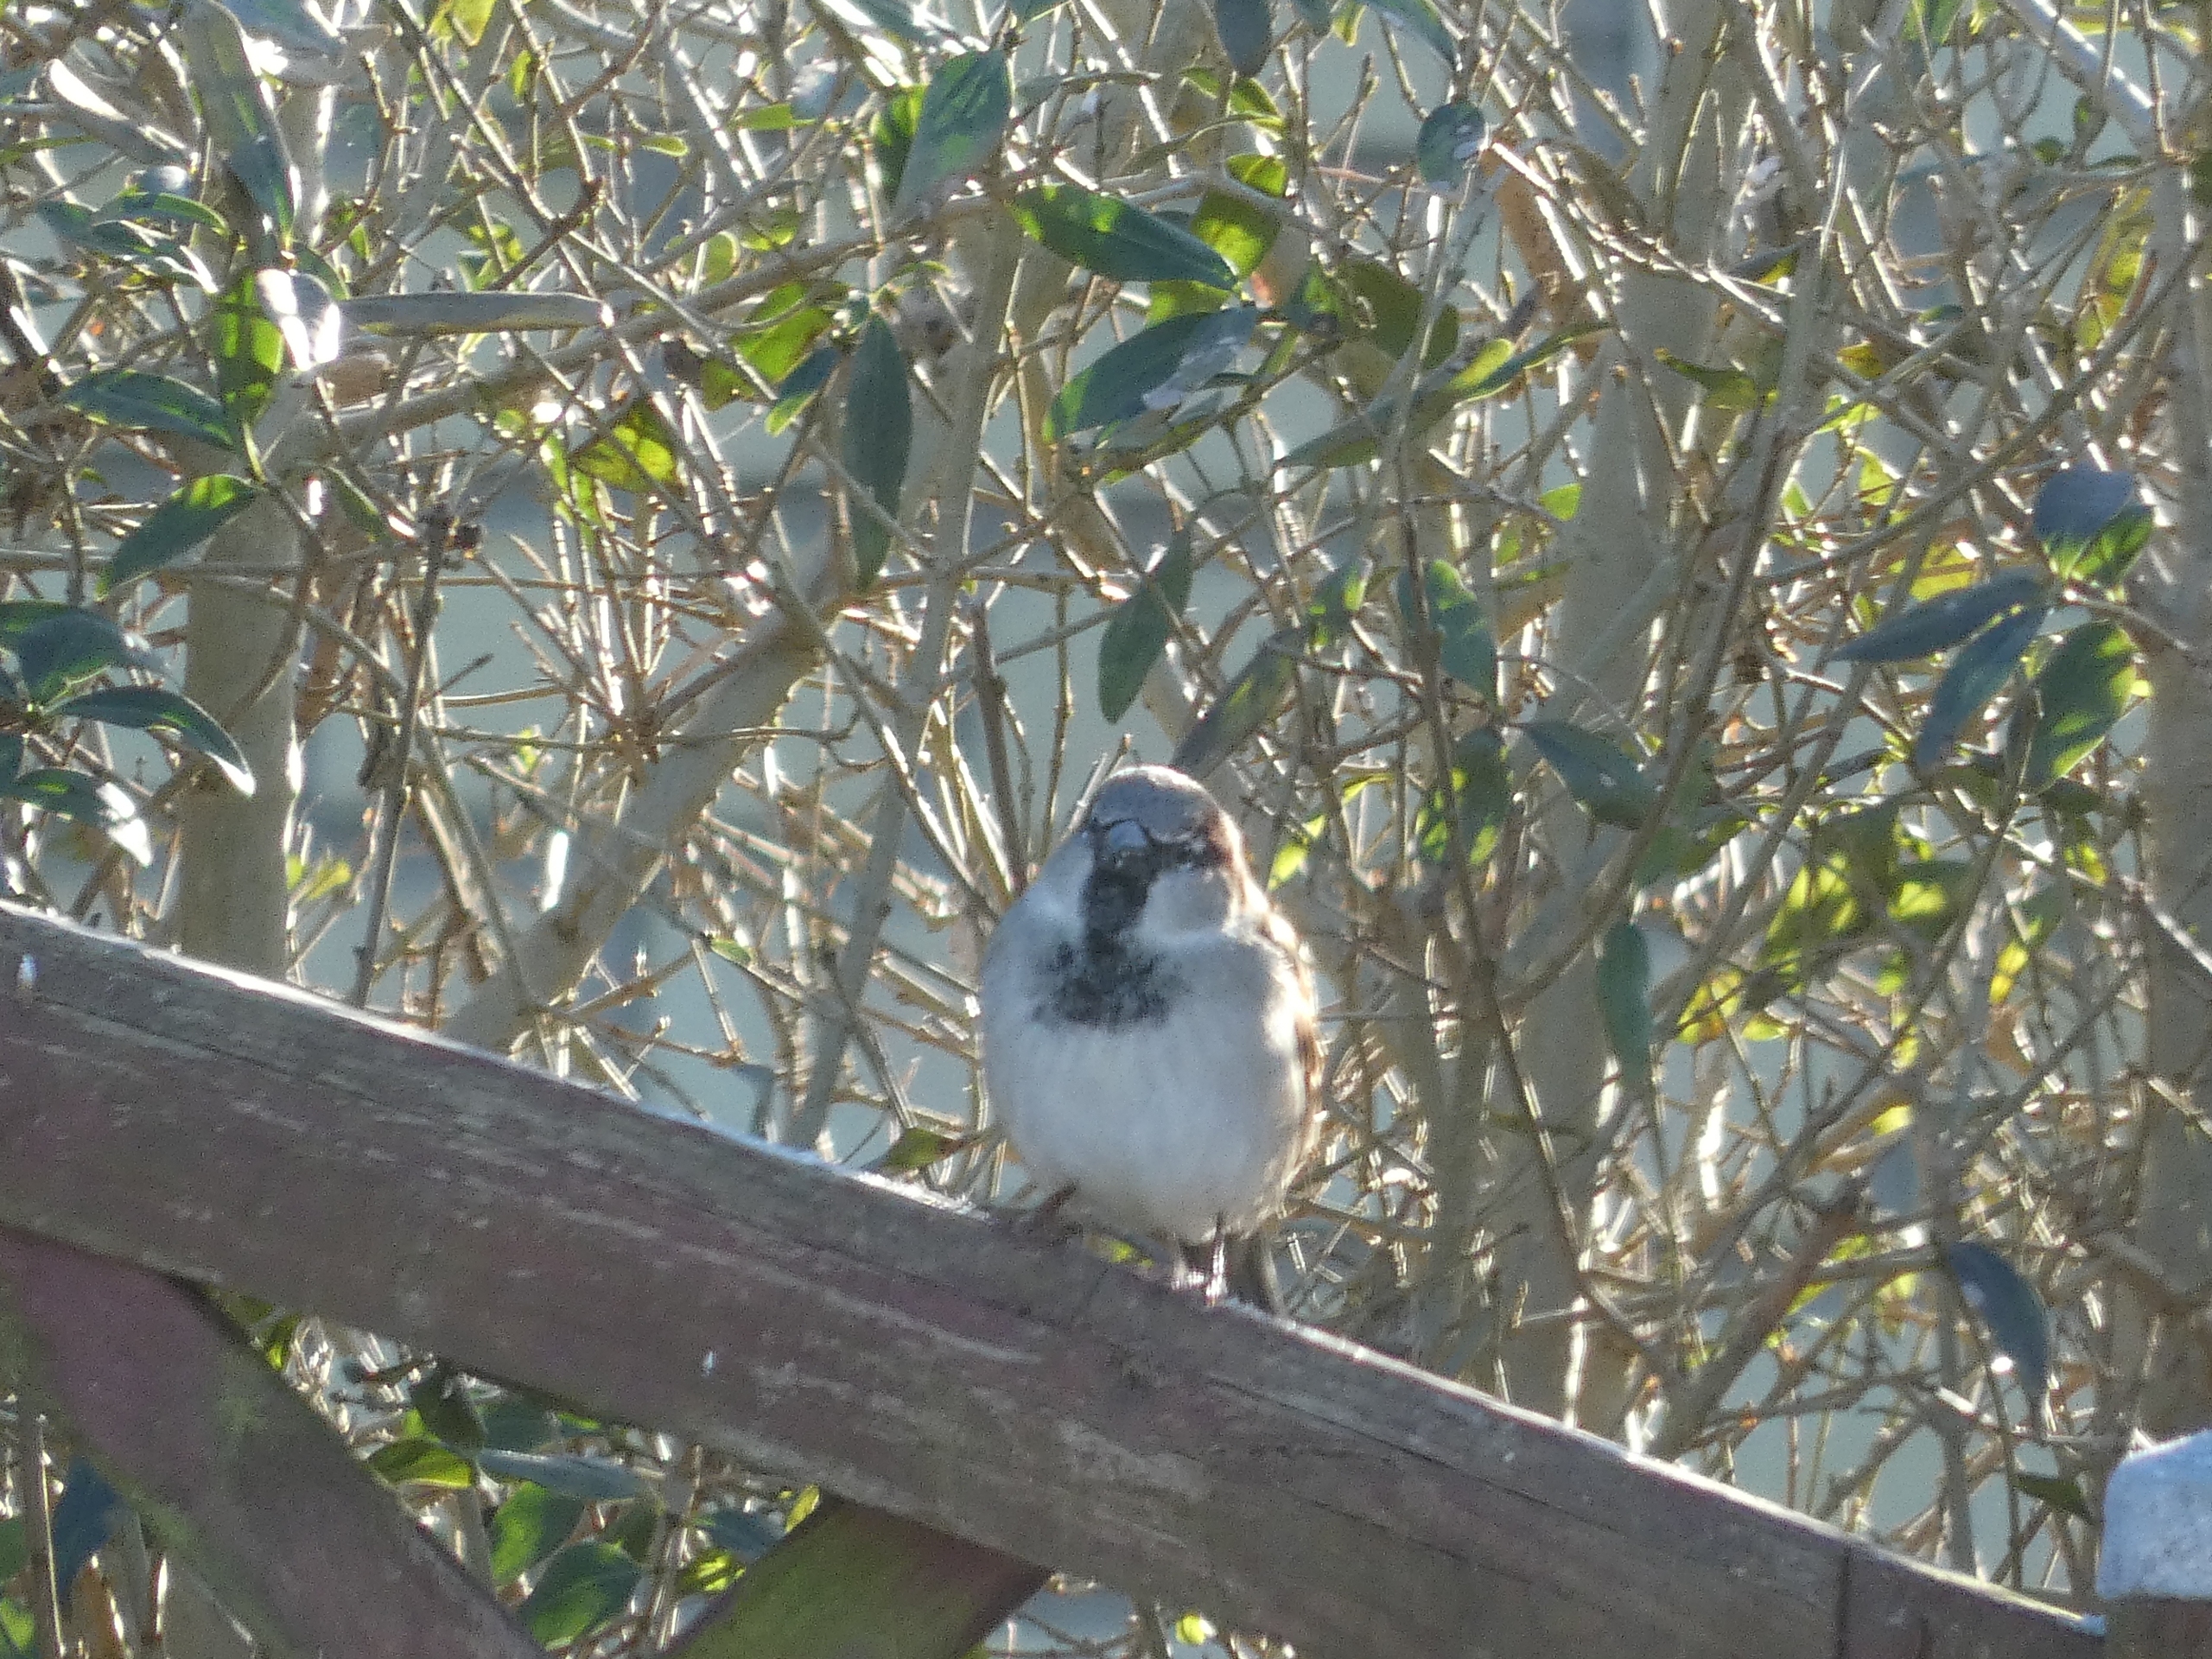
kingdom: Animalia
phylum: Chordata
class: Aves
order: Passeriformes
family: Passeridae
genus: Passer
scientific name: Passer domesticus
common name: Gråspurv
